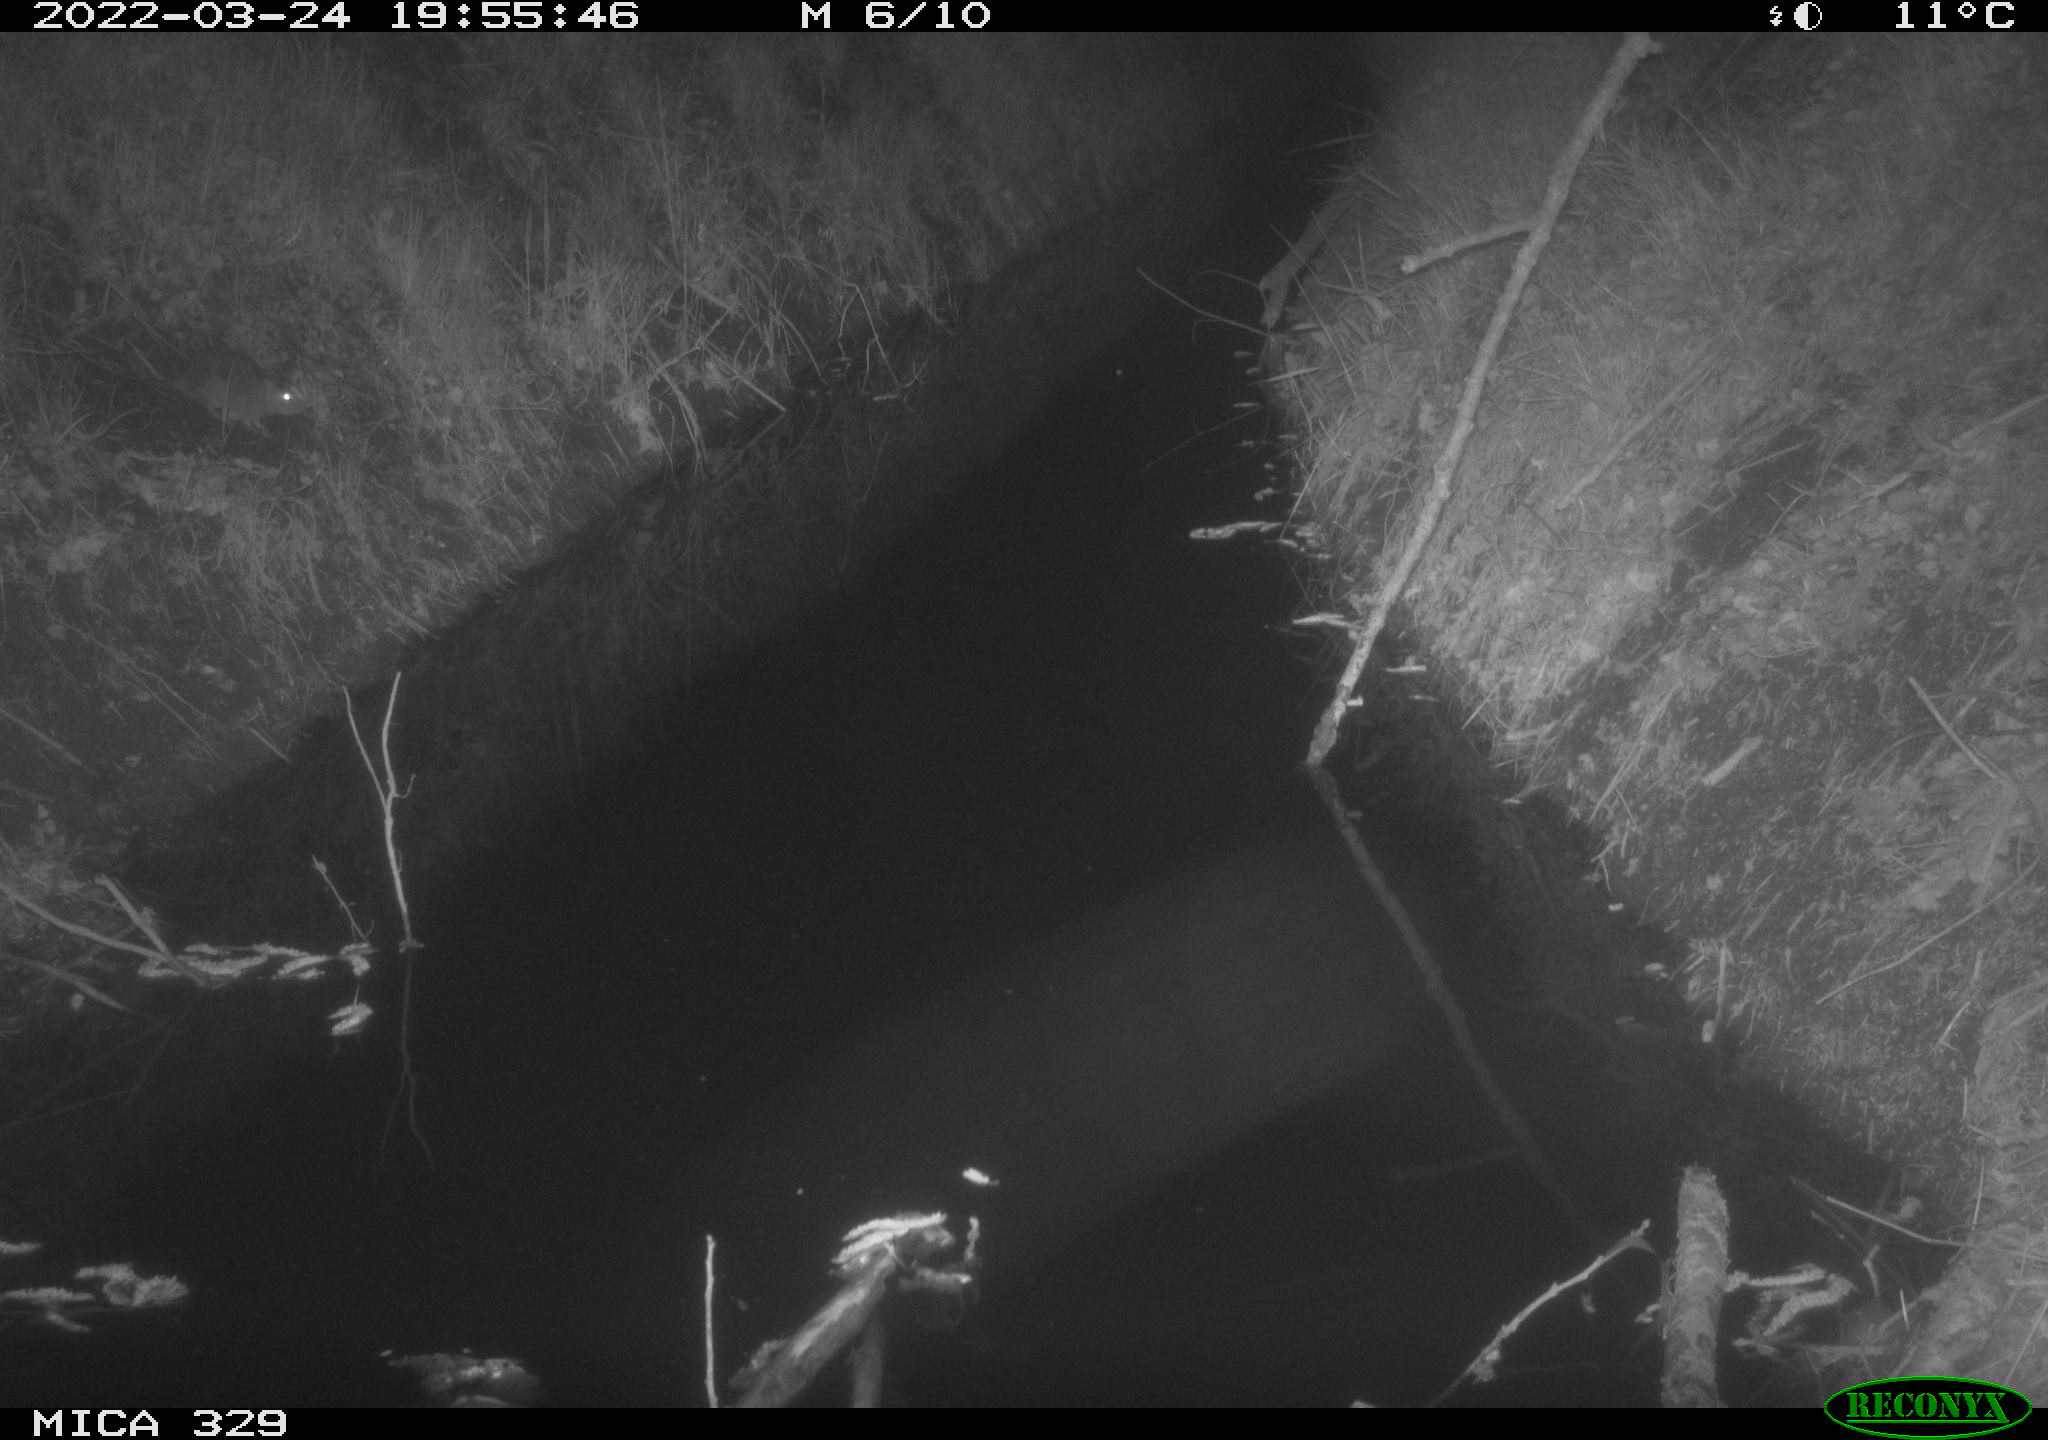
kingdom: Animalia
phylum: Chordata
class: Mammalia
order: Rodentia
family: Muridae
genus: Rattus
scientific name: Rattus norvegicus
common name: Brown rat
